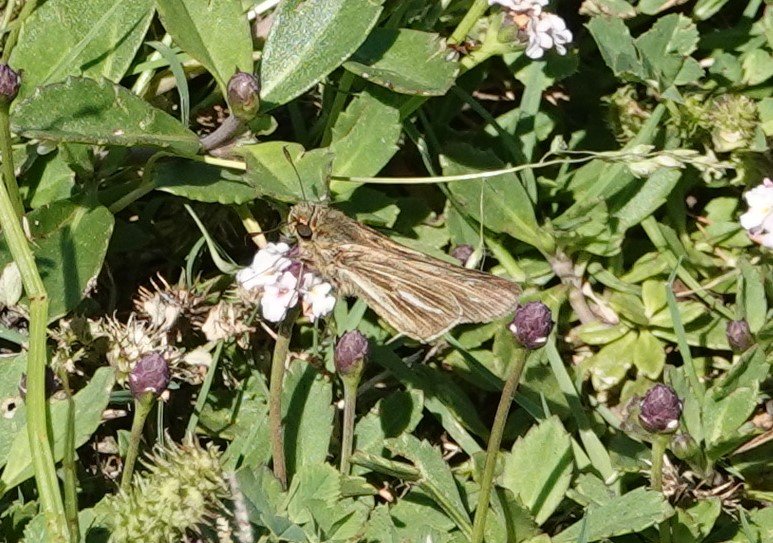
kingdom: Animalia
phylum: Arthropoda
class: Insecta
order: Lepidoptera
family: Hesperiidae
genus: Panoquina
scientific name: Panoquina panoquin
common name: Salt Marsh Skipper
